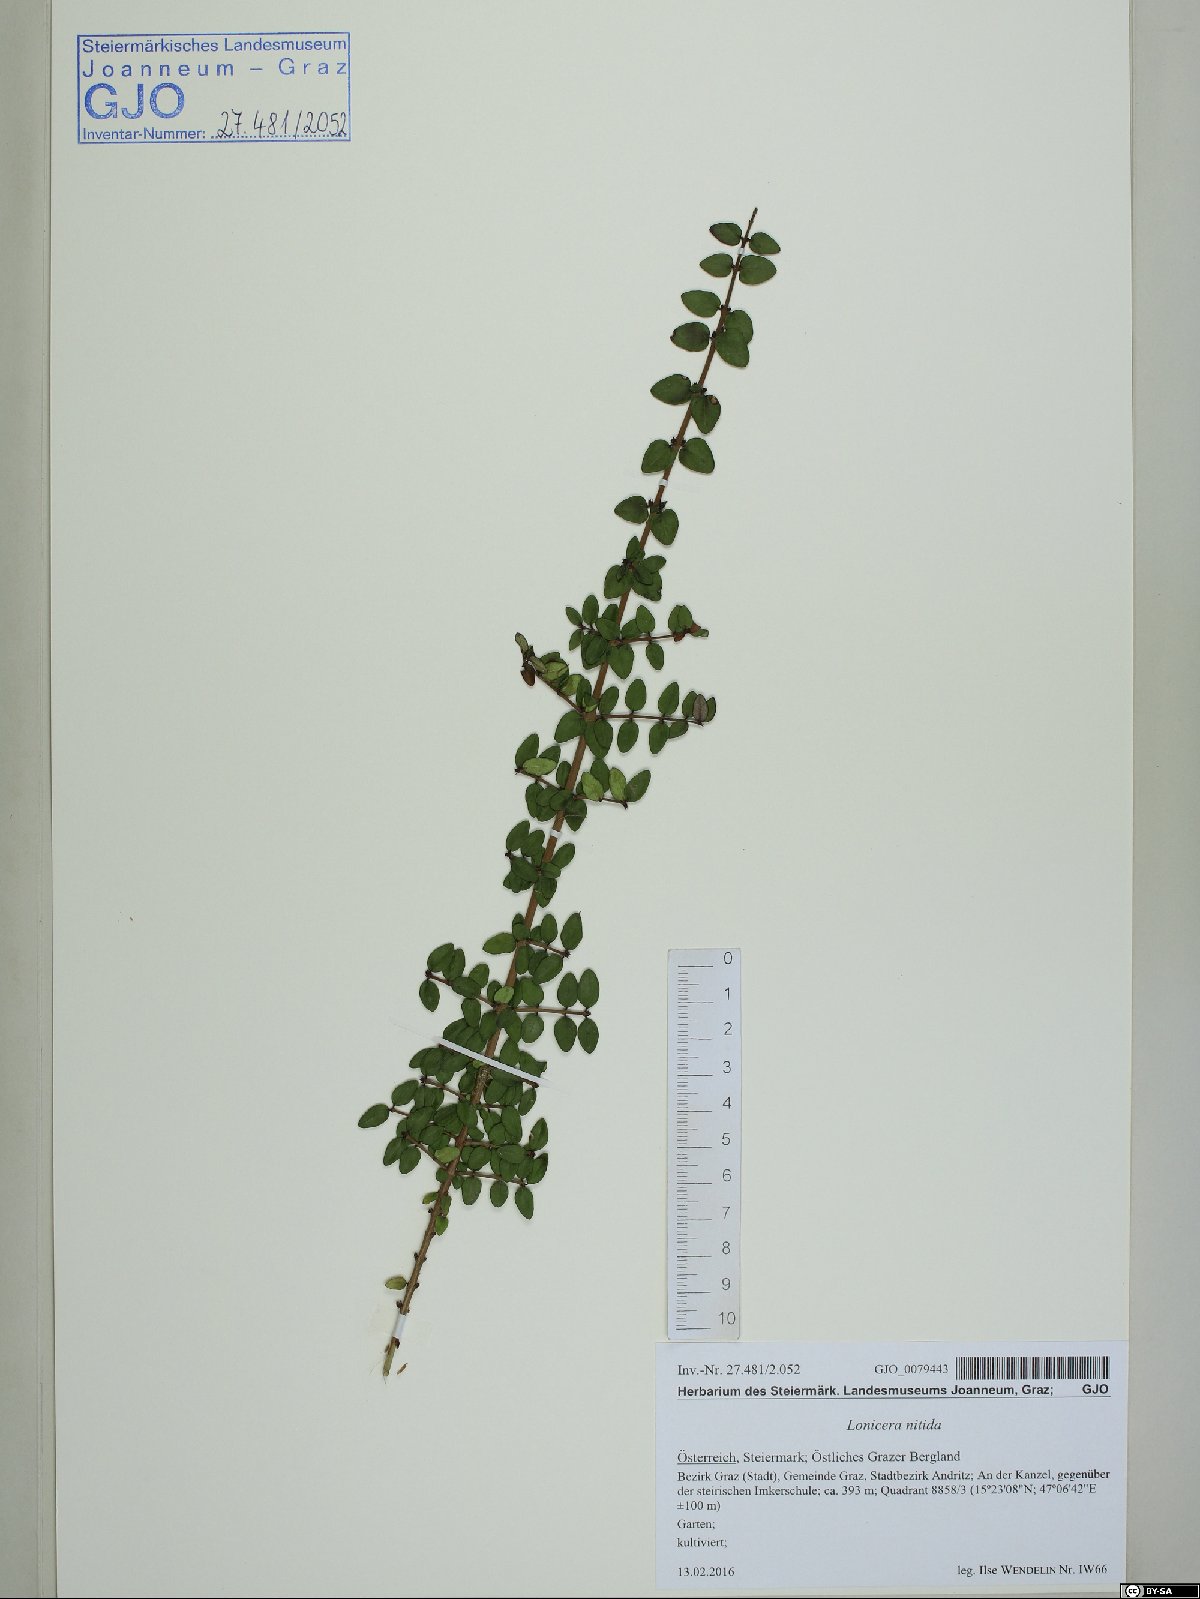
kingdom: Plantae
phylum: Tracheophyta
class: Magnoliopsida
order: Dipsacales
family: Caprifoliaceae
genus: Lonicera
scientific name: Lonicera pileata
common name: Box-leaved honeysuckle
